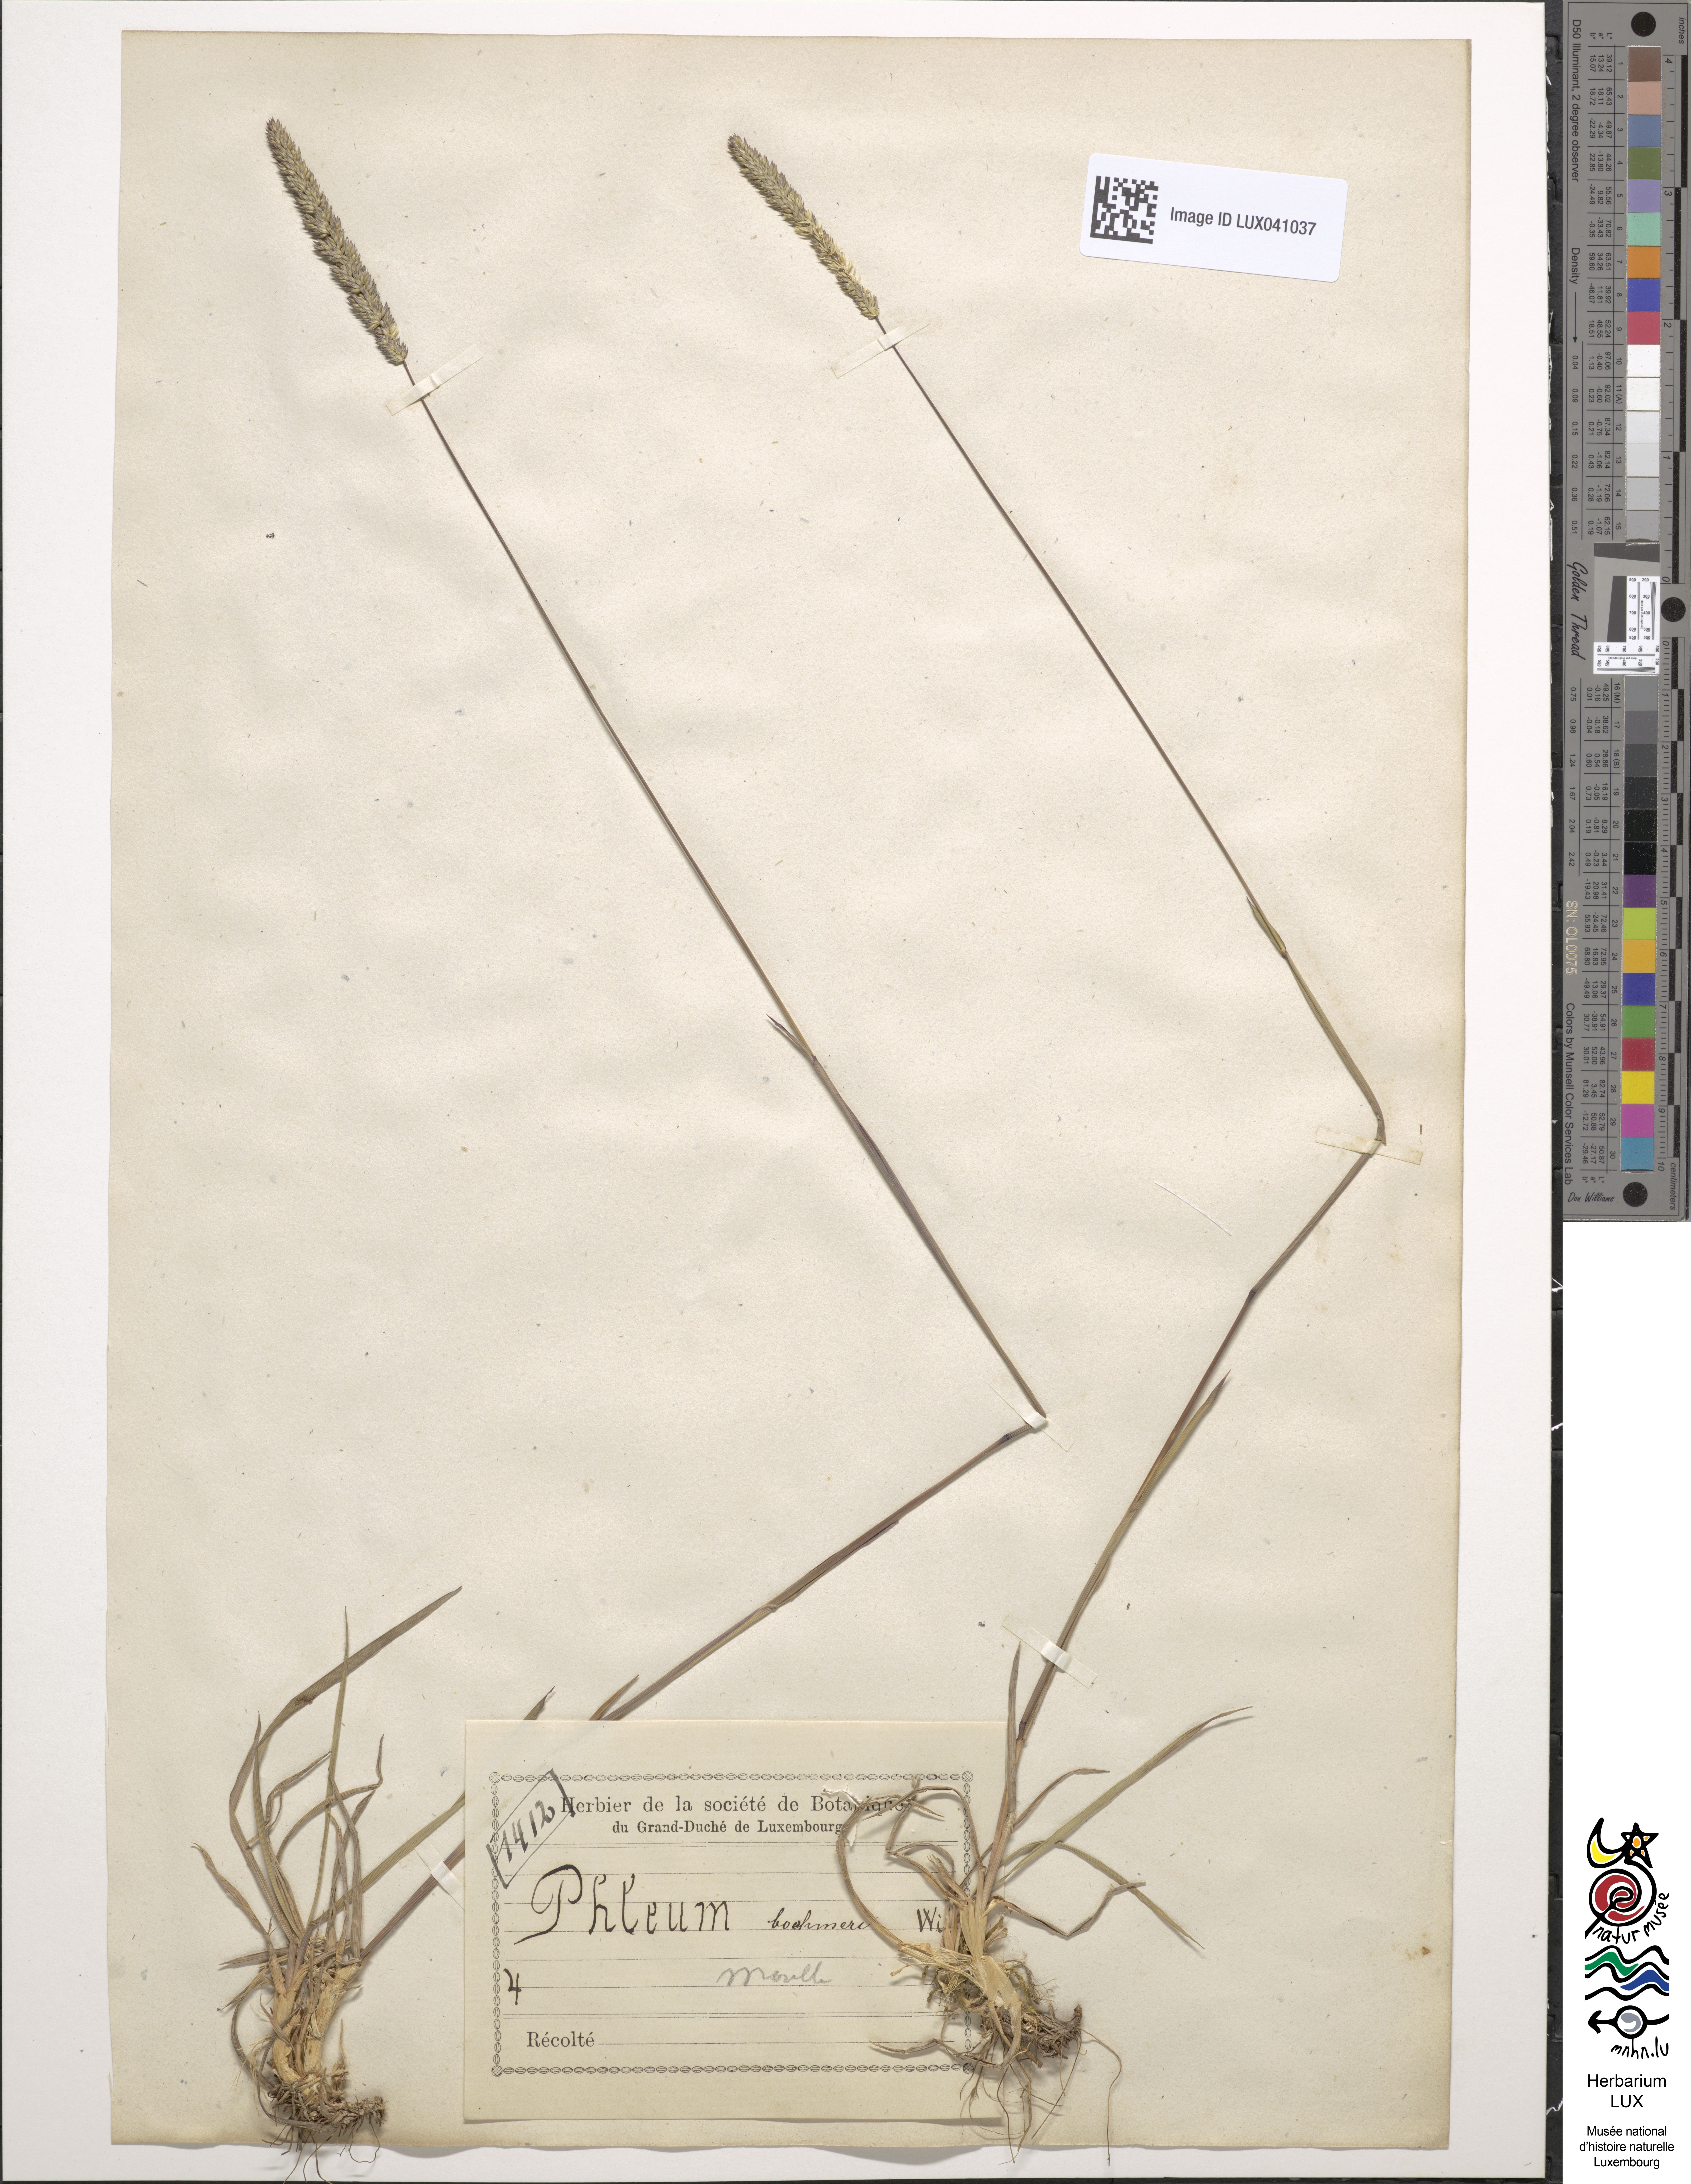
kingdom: Plantae
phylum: Tracheophyta
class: Liliopsida
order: Poales
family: Poaceae
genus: Phleum
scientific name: Phleum phleoides
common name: Purple-stem cat's-tail
